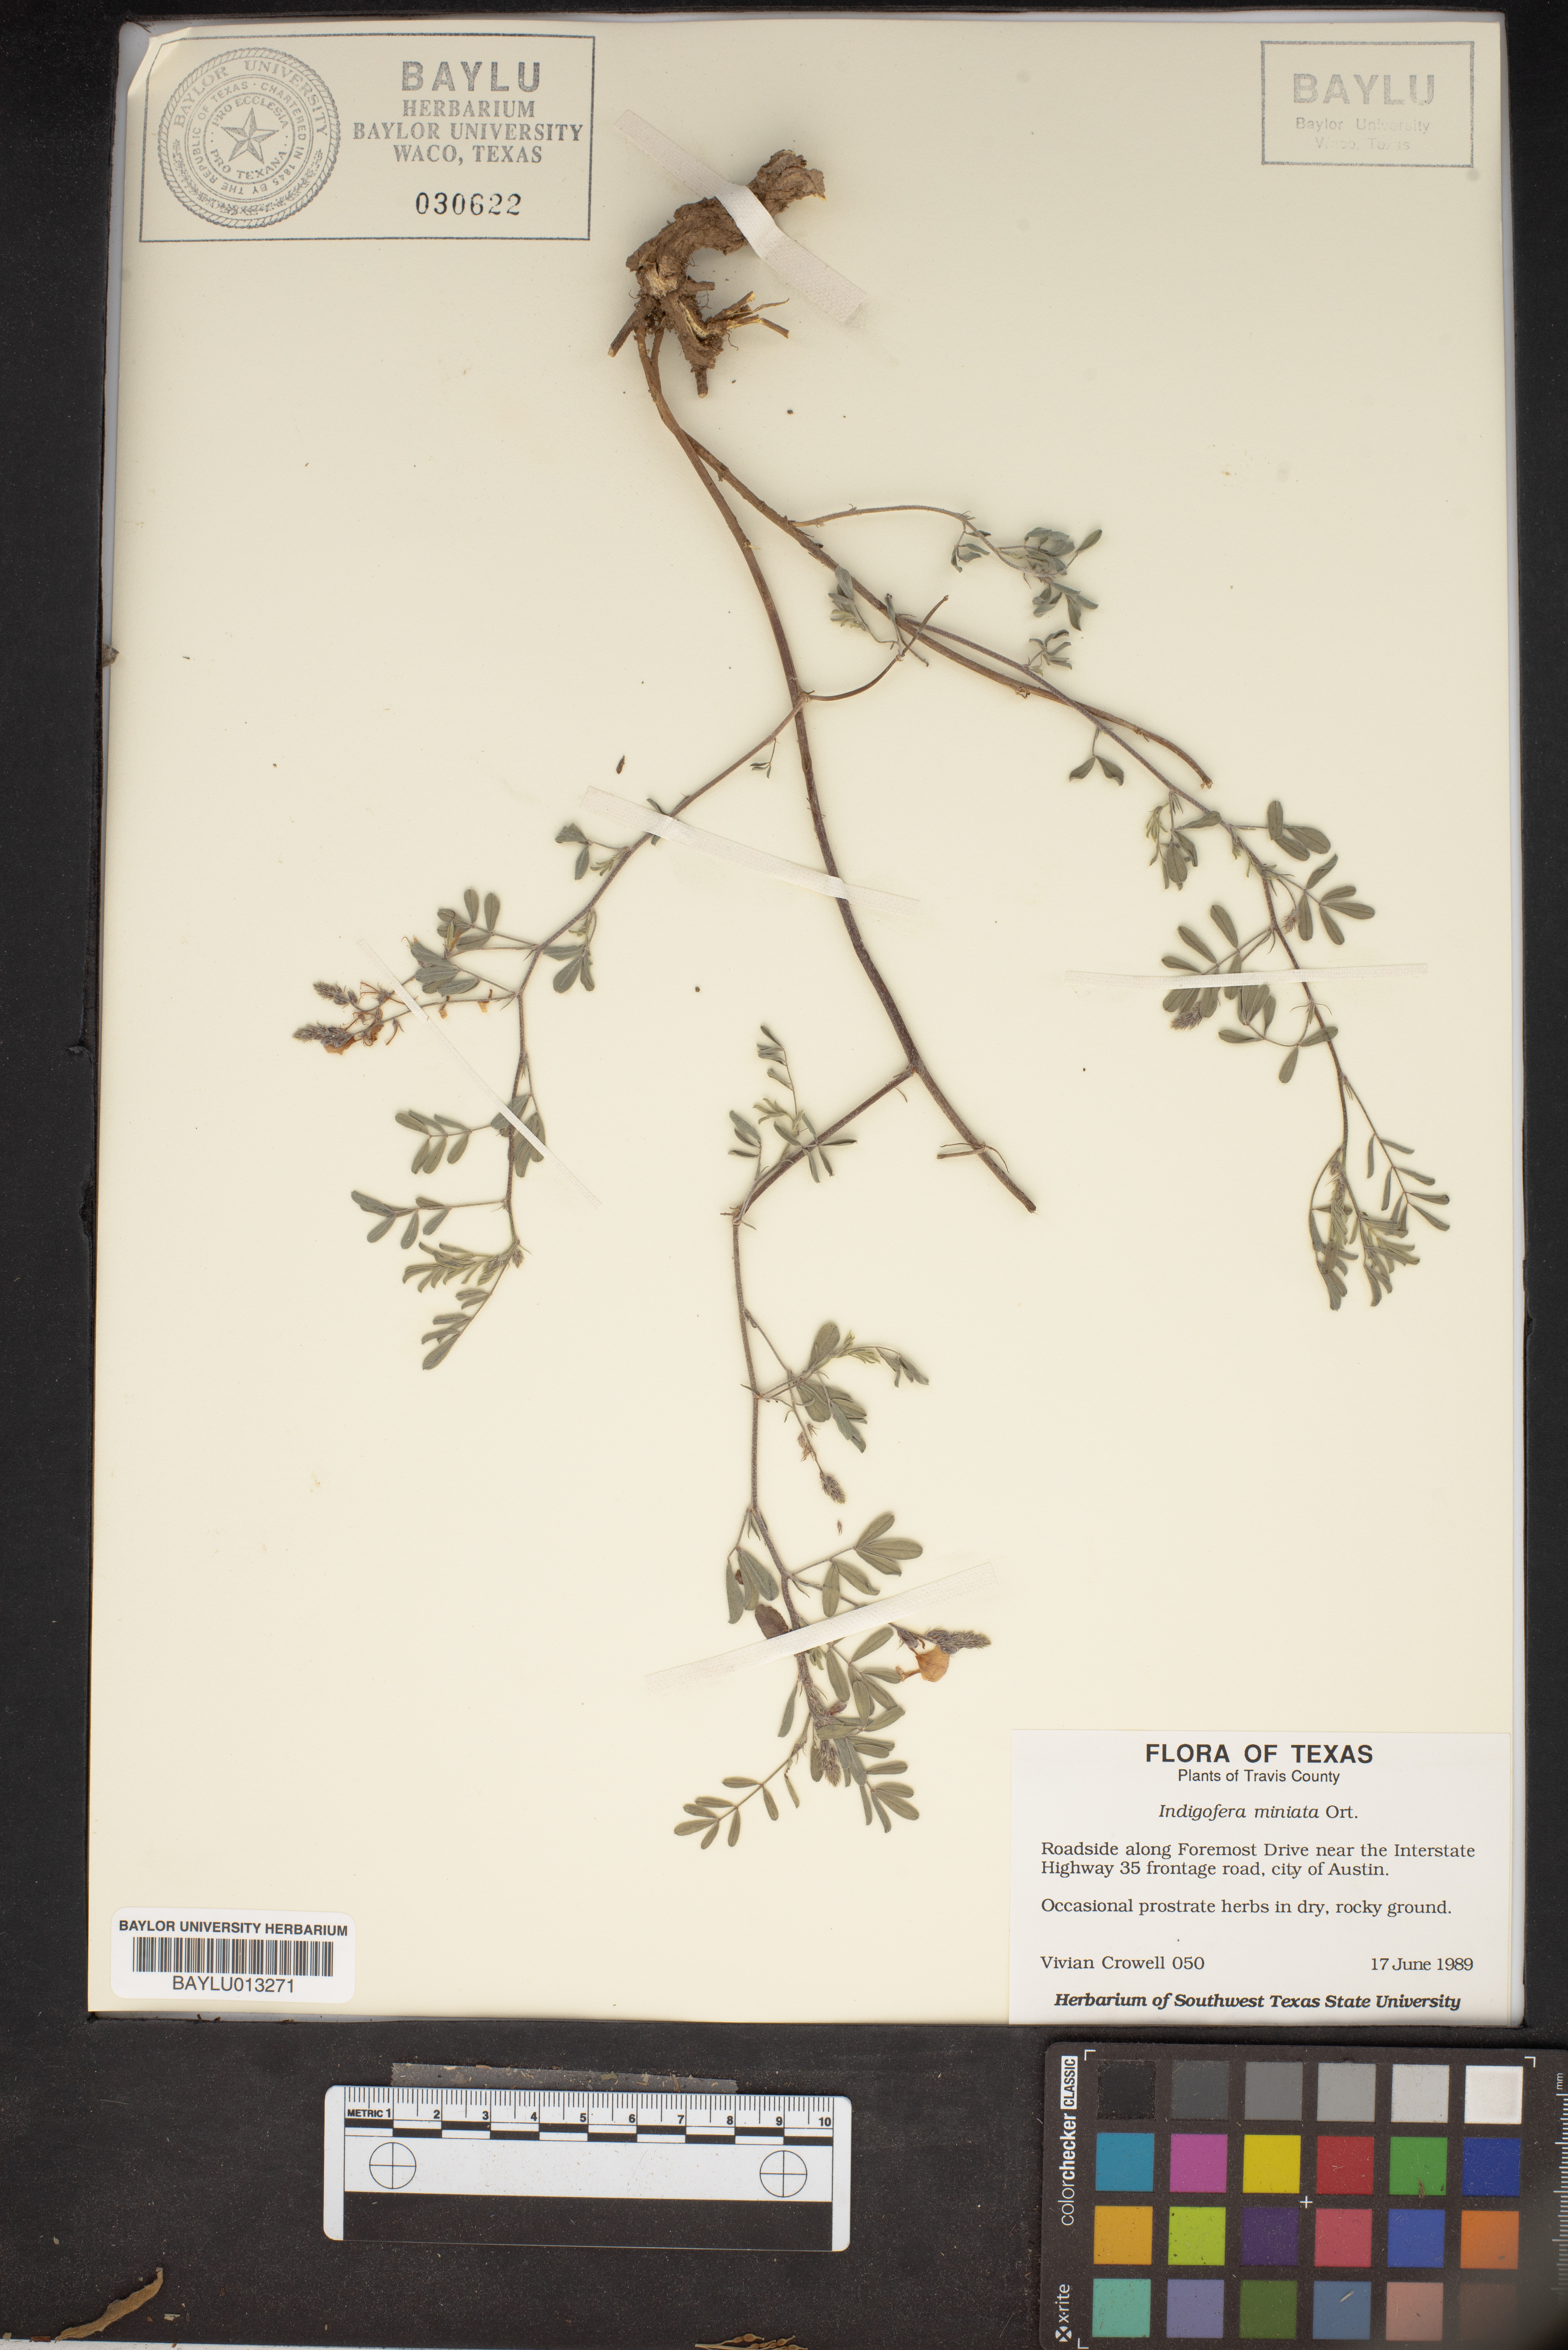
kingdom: Plantae
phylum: Tracheophyta
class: Magnoliopsida
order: Fabales
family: Fabaceae
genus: Indigofera
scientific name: Indigofera miniata
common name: Coast indigo
